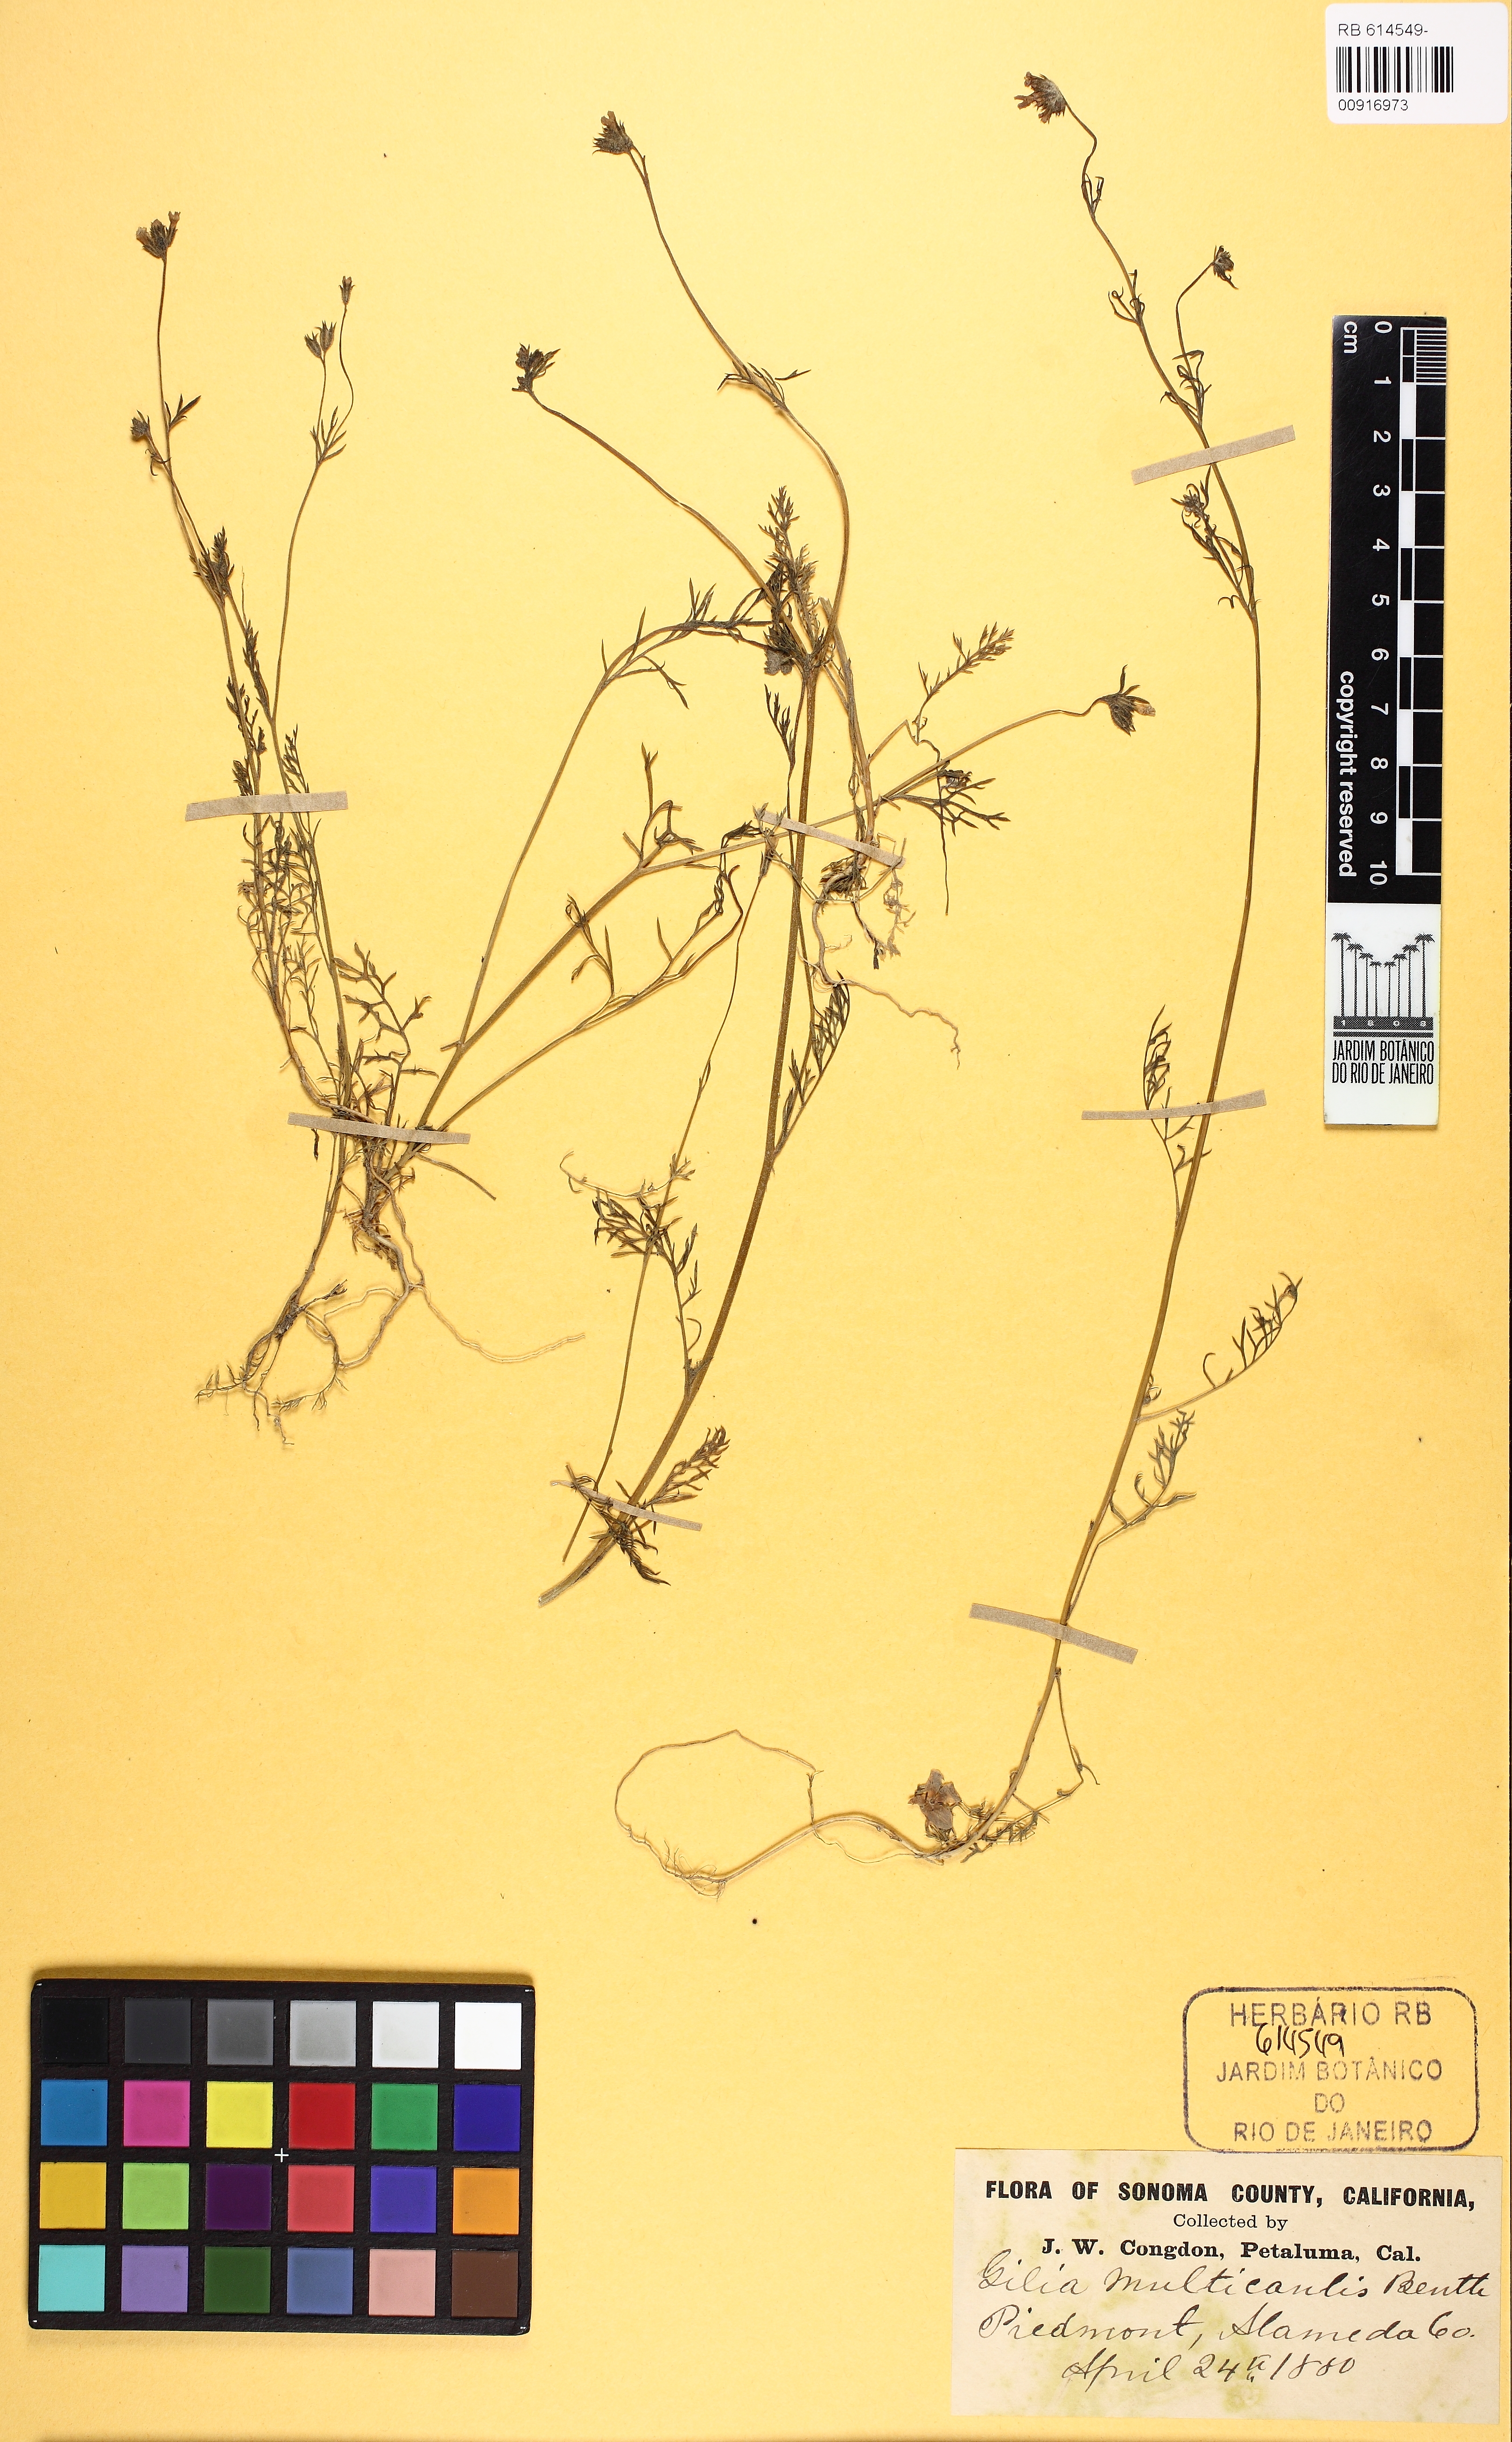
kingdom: Plantae
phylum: Tracheophyta
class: Magnoliopsida
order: Ericales
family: Polemoniaceae
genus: Gilia
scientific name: Gilia achilleifolia
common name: California gily-flower
